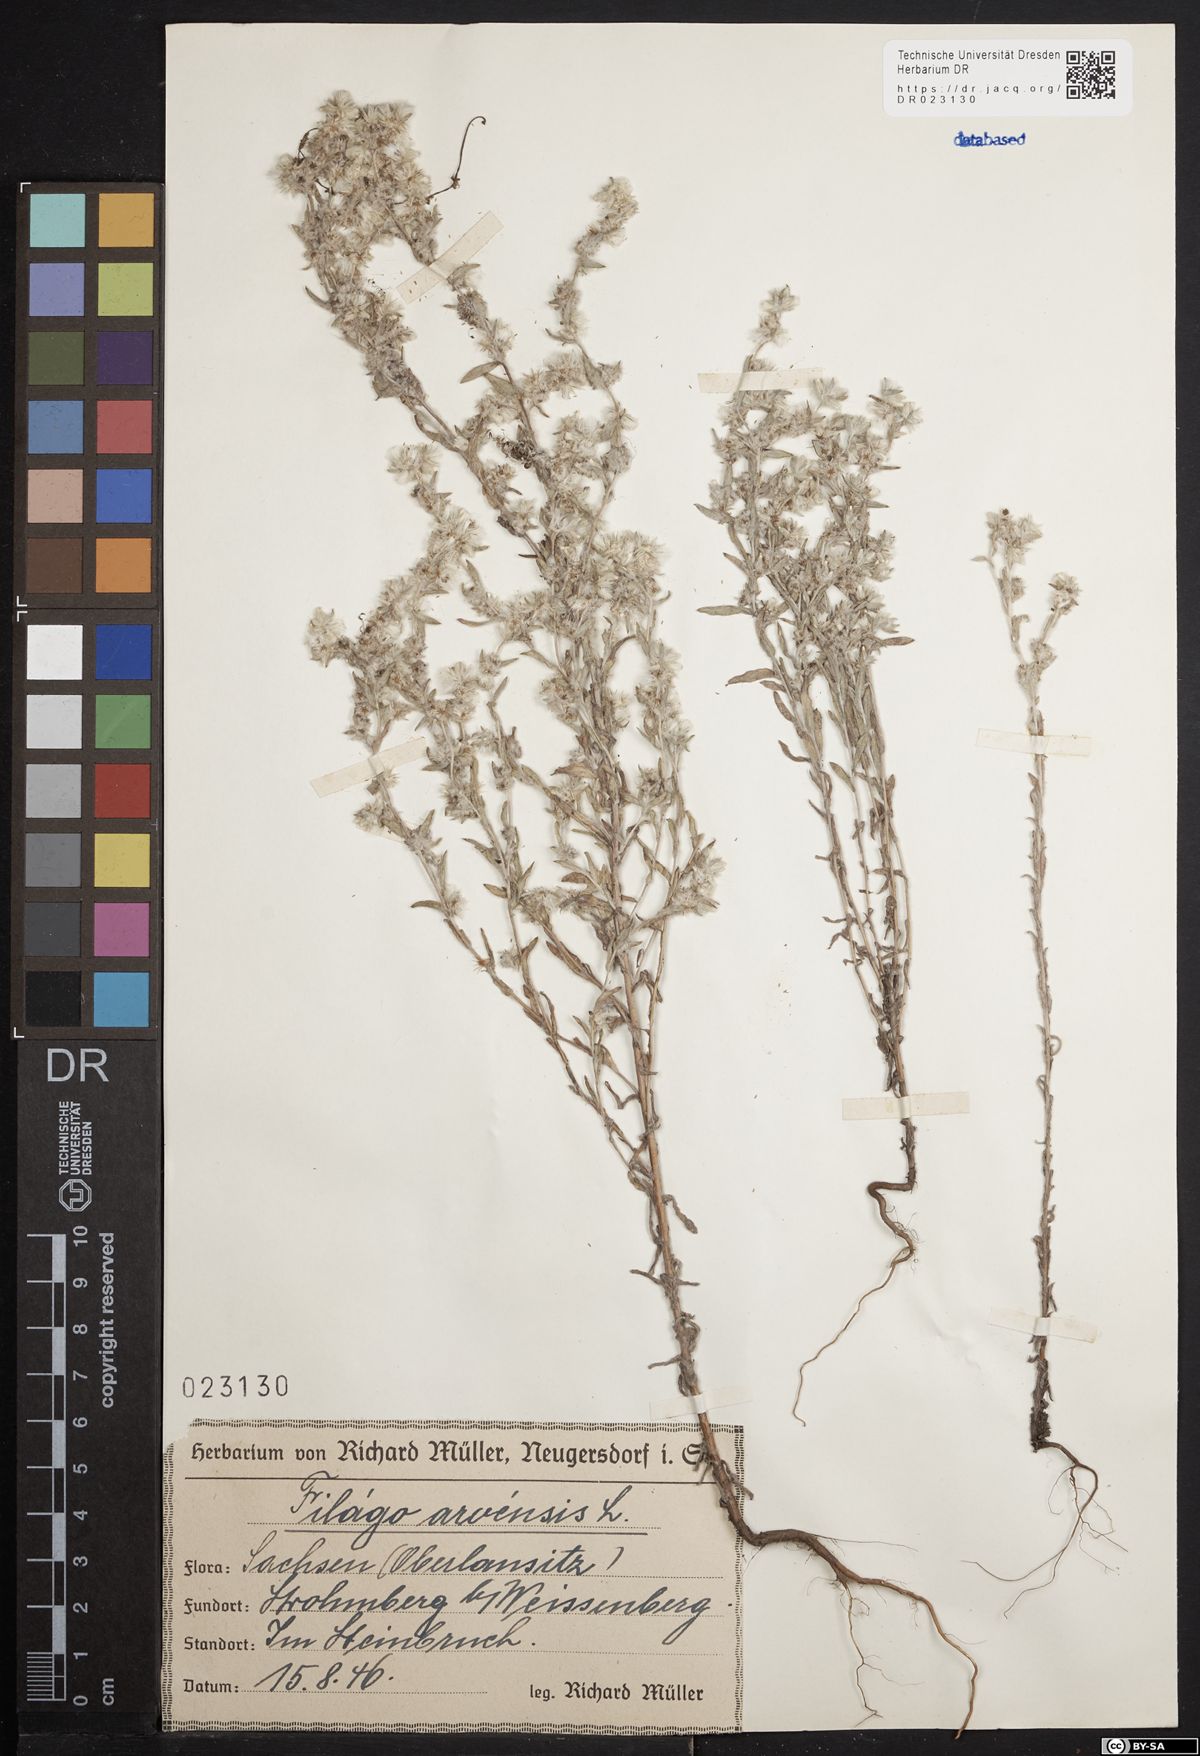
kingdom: Plantae
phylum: Tracheophyta
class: Magnoliopsida
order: Asterales
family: Asteraceae
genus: Filago
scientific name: Filago arvensis
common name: Field cudweed
